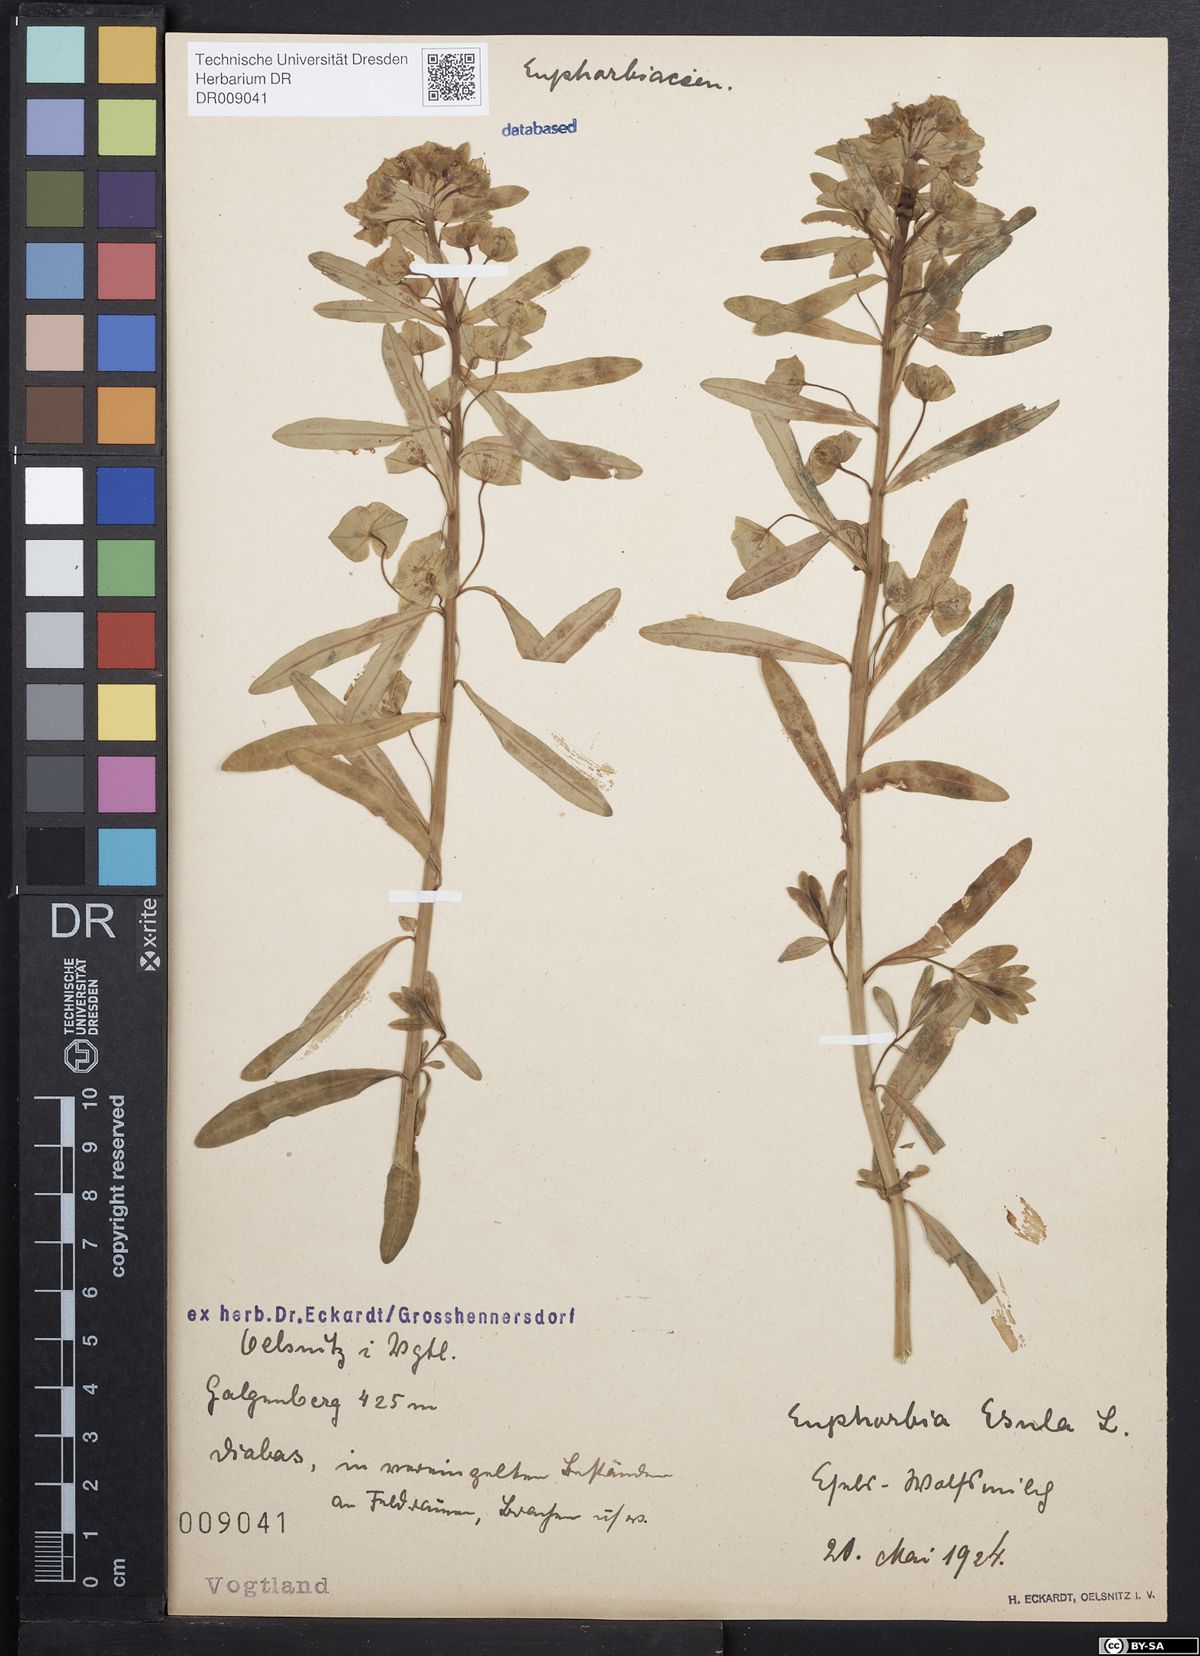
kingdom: Plantae
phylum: Tracheophyta
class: Magnoliopsida
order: Malpighiales
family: Euphorbiaceae
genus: Euphorbia
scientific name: Euphorbia esula
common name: Leafy spurge
